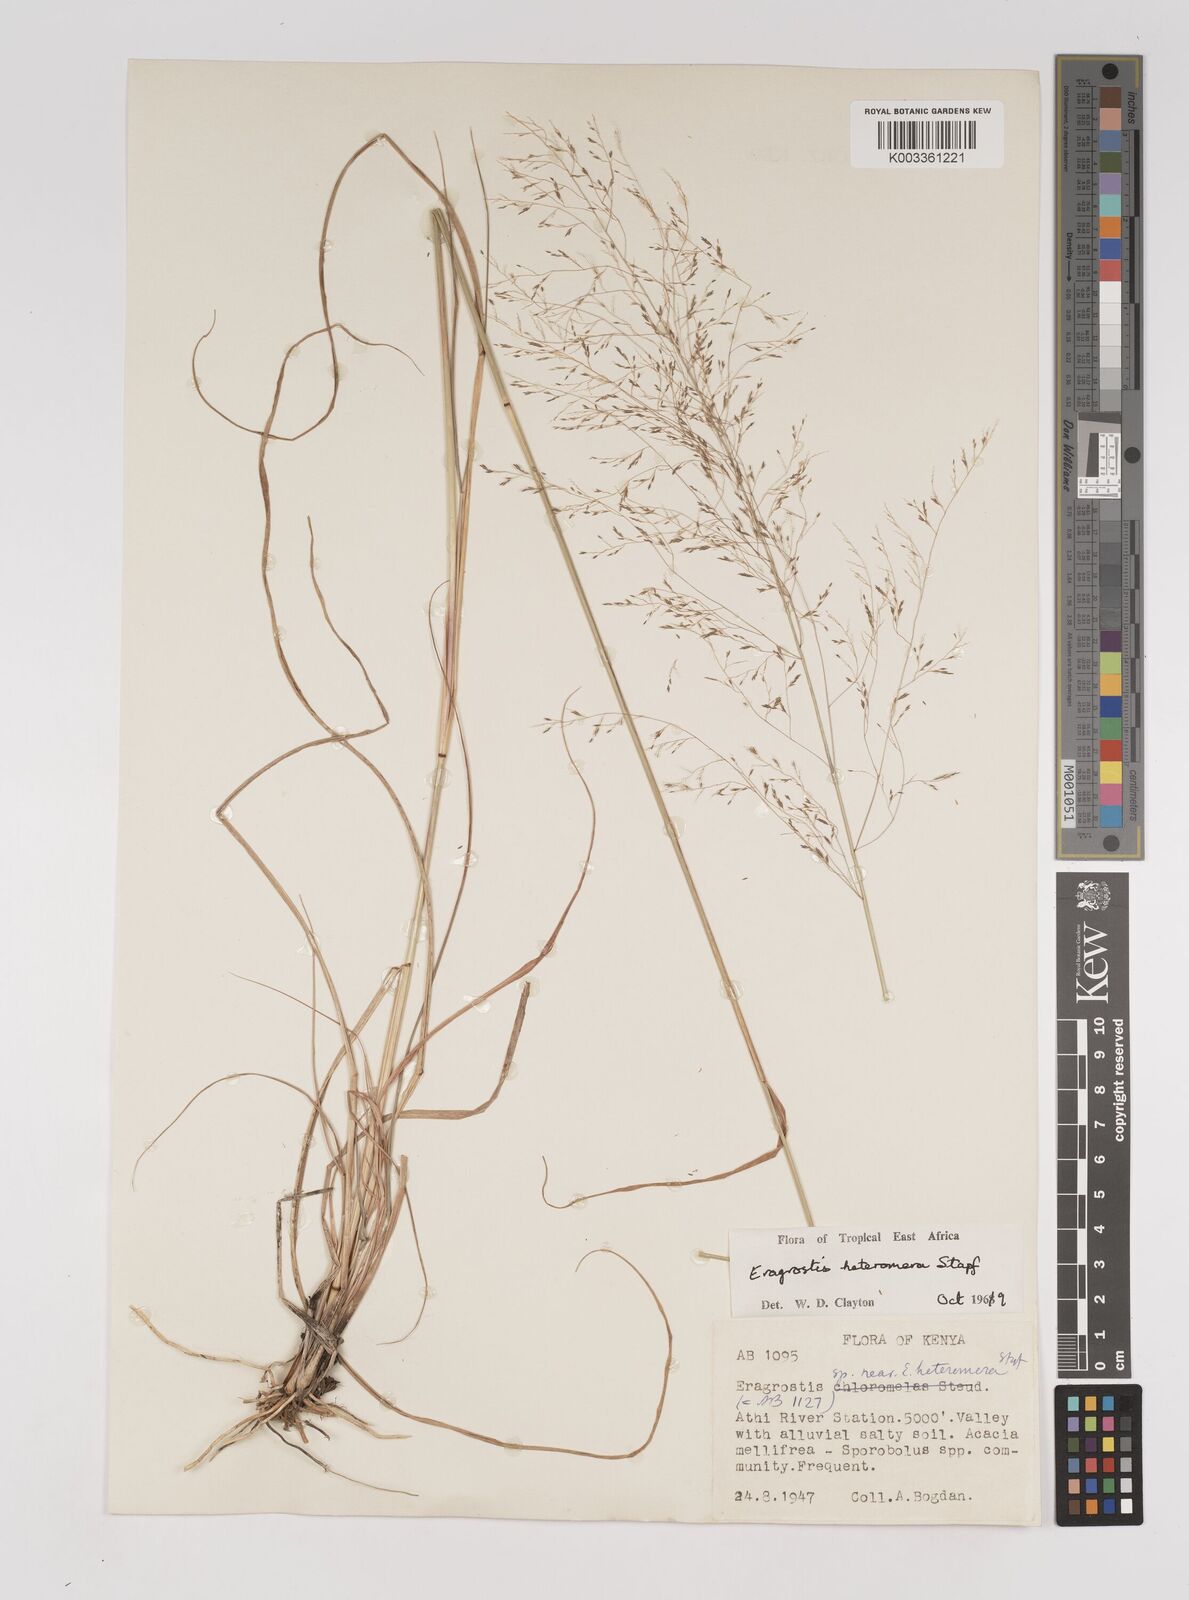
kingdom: Plantae
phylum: Tracheophyta
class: Liliopsida
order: Poales
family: Poaceae
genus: Eragrostis
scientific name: Eragrostis heteromera
